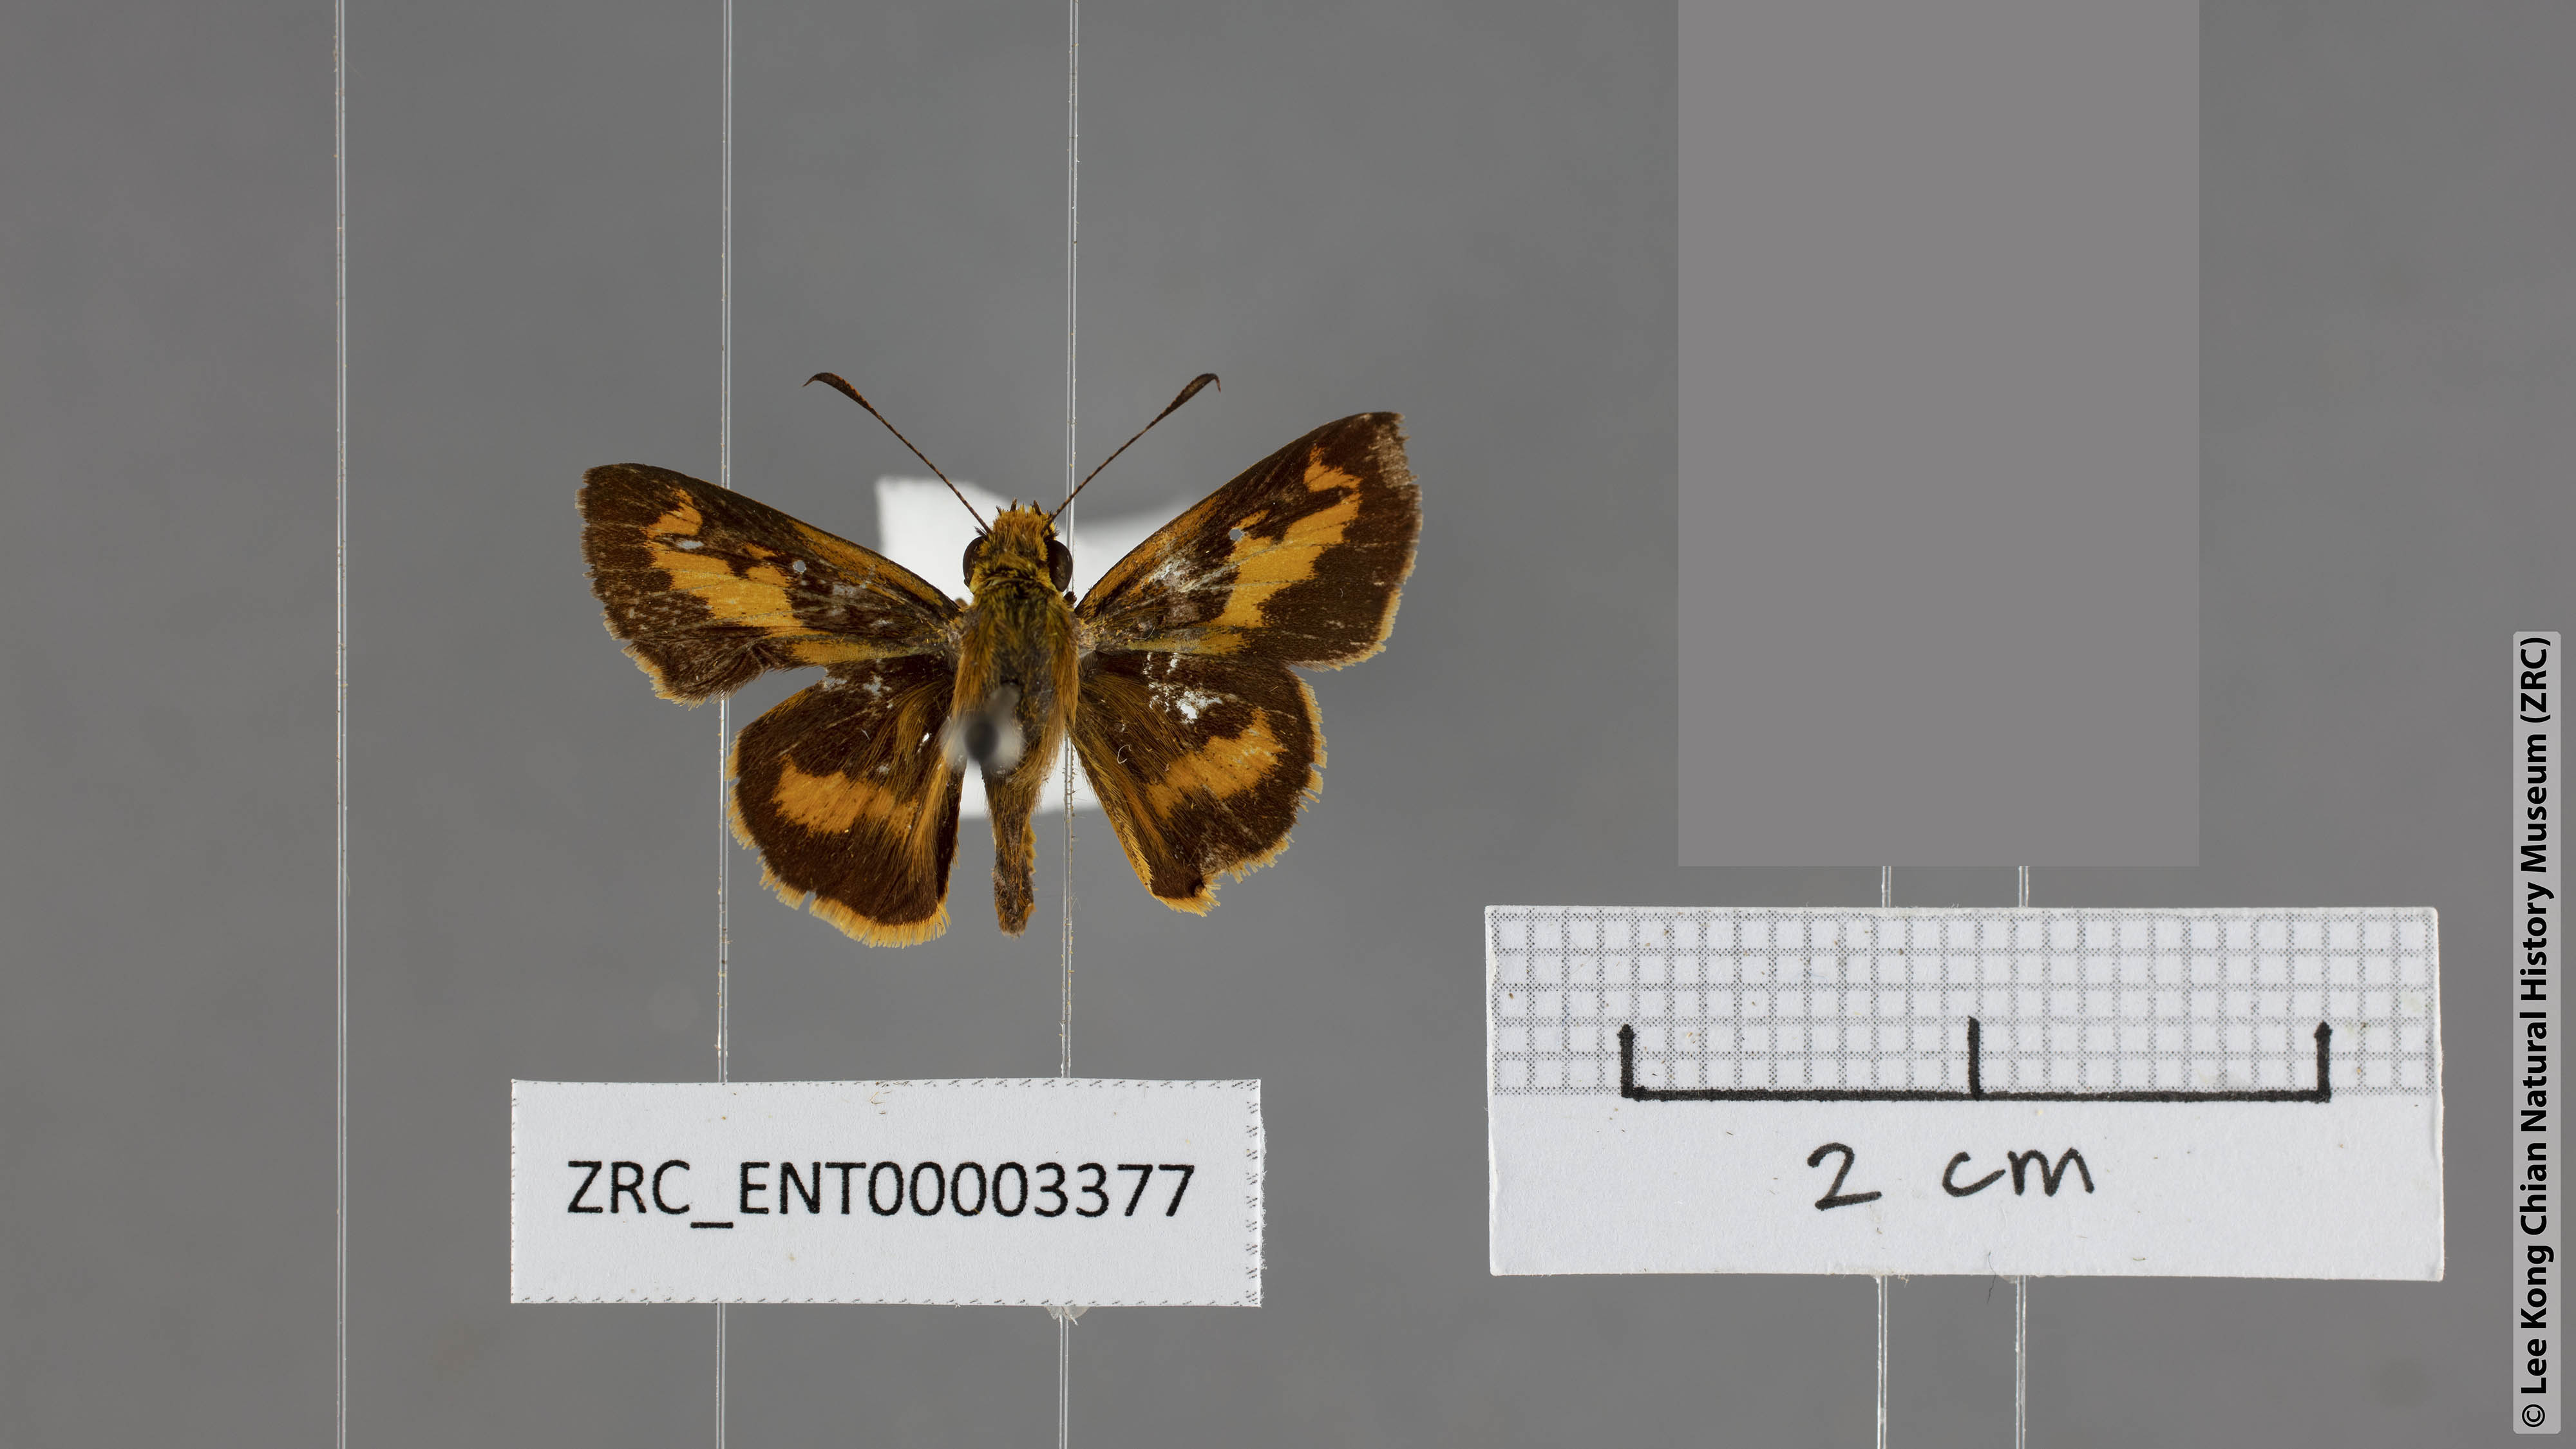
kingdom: Animalia
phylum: Arthropoda
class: Insecta
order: Lepidoptera
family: Hesperiidae
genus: Oriens
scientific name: Oriens goloides
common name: Smaller dartlet
